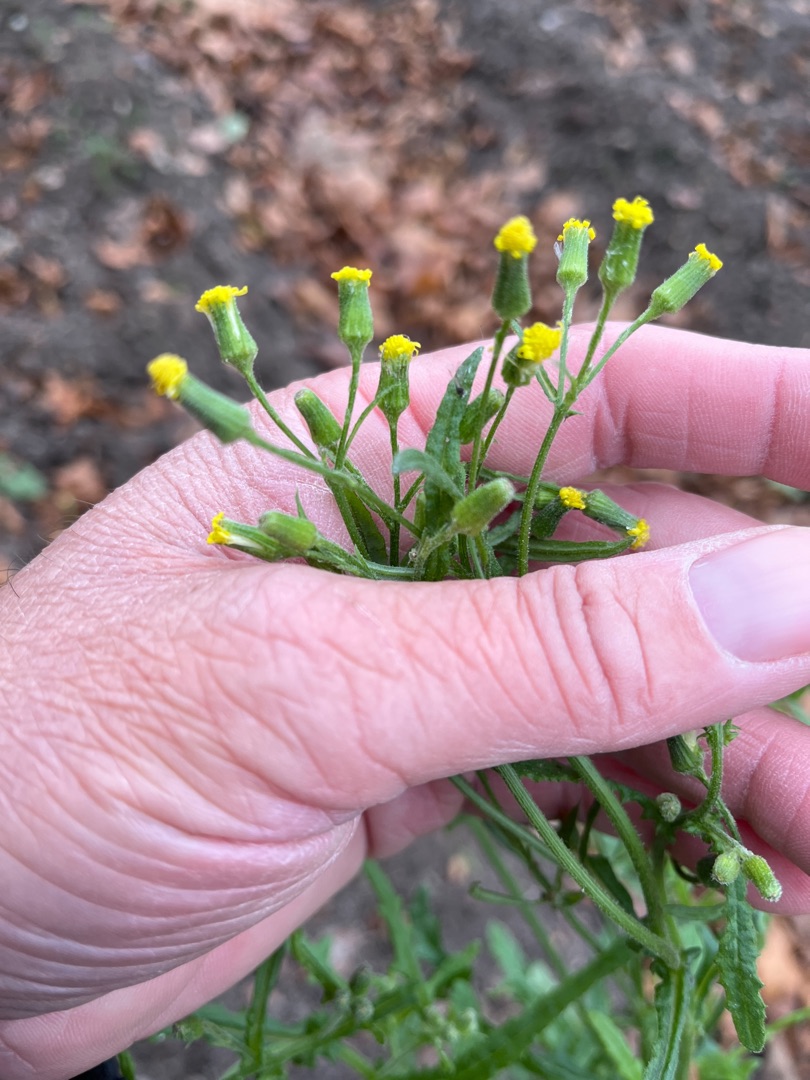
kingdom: Plantae
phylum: Tracheophyta
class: Magnoliopsida
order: Asterales
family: Asteraceae
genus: Senecio
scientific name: Senecio sylvaticus
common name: Skov-brandbæger
